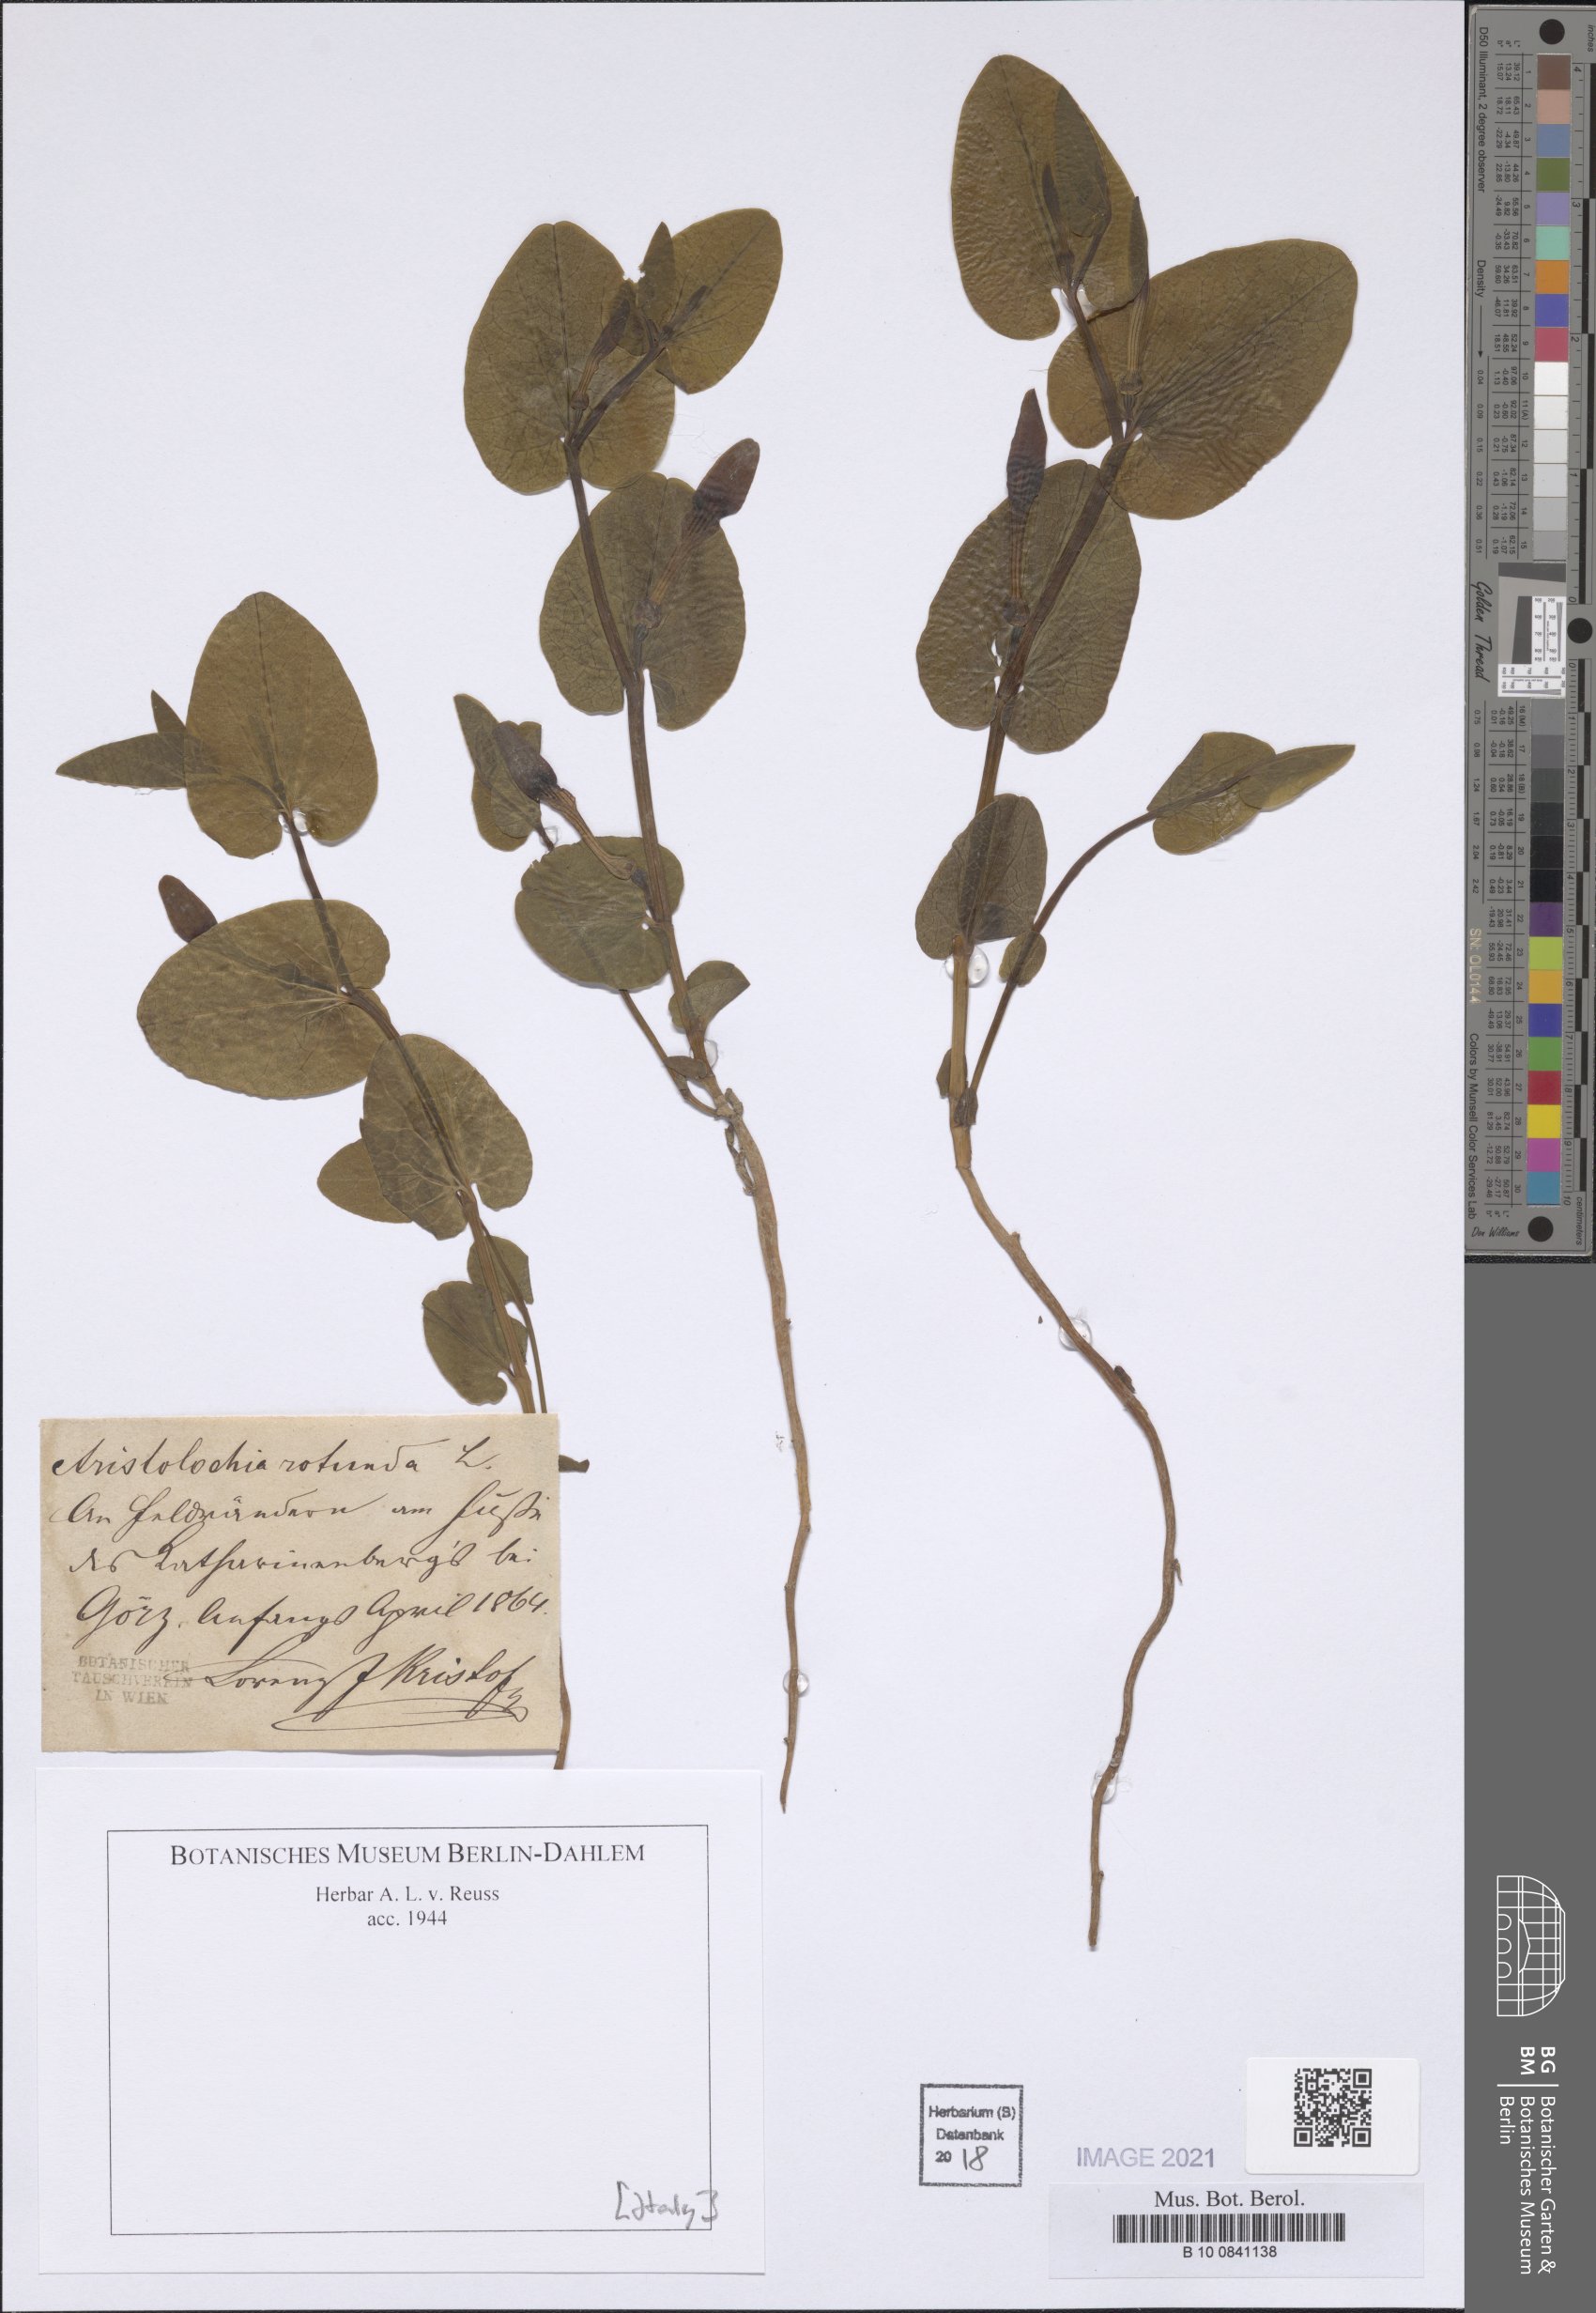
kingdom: Plantae
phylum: Tracheophyta
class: Magnoliopsida
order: Piperales
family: Aristolochiaceae
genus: Aristolochia
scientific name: Aristolochia rotunda
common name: Smearwort
